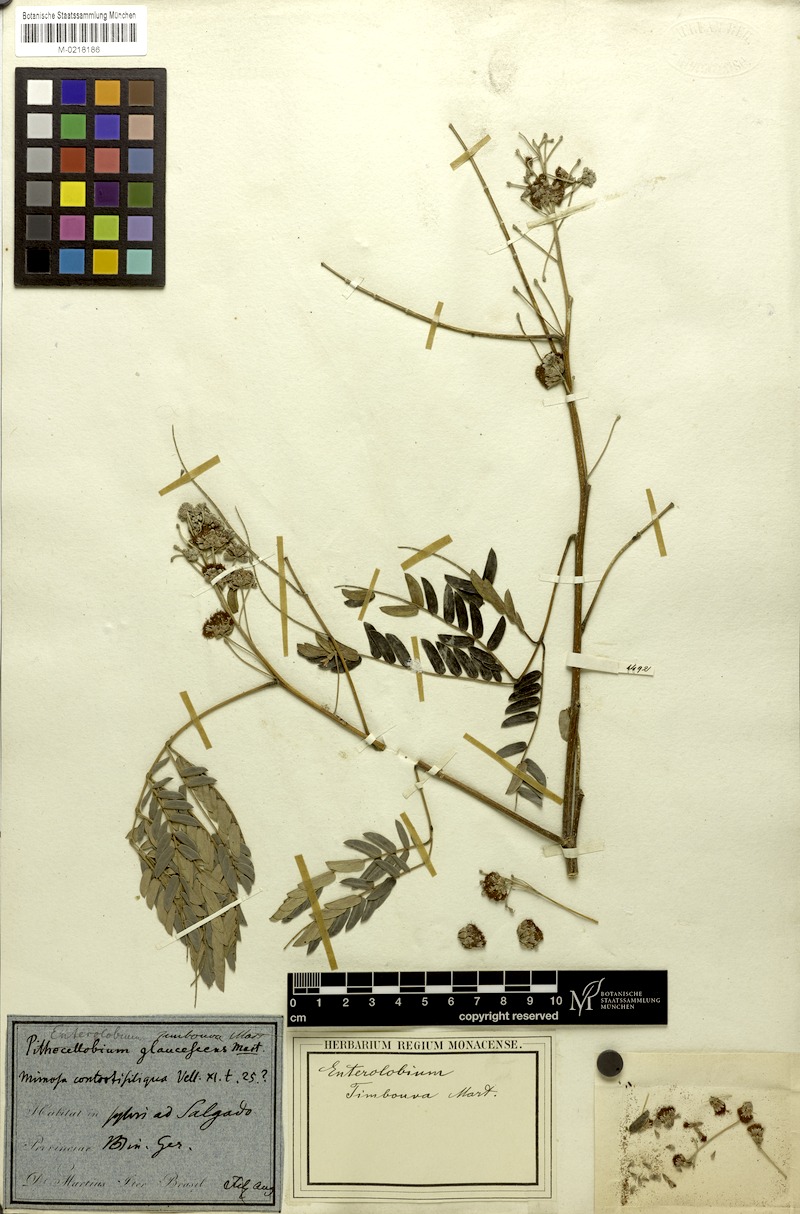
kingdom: Plantae
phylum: Tracheophyta
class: Magnoliopsida
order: Fabales
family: Fabaceae
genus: Enterolobium
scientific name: Enterolobium contortisiliquum
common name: Pacara earpod tree
